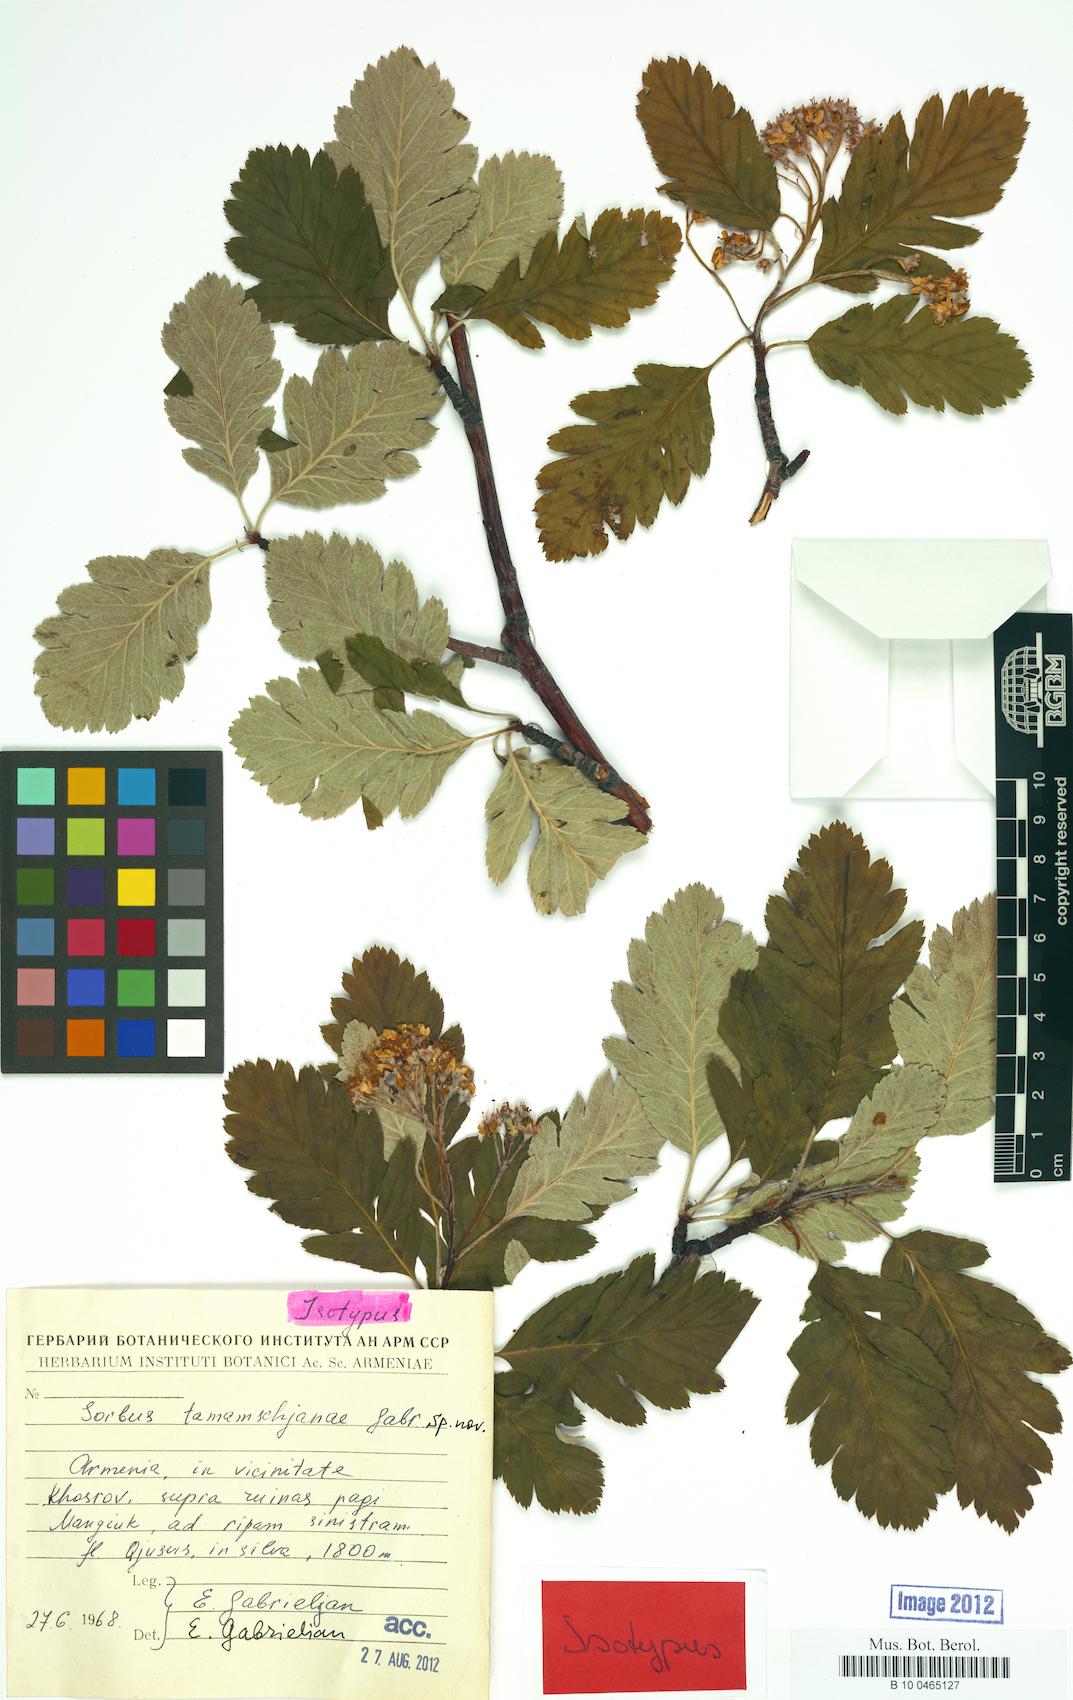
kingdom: Plantae
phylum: Tracheophyta
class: Magnoliopsida
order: Rosales
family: Rosaceae
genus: Hedlundia
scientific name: Hedlundia tamamschjanae
